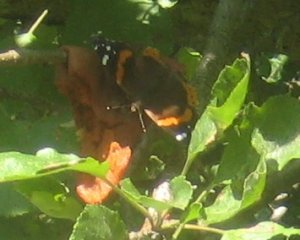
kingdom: Animalia
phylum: Arthropoda
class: Insecta
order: Lepidoptera
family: Nymphalidae
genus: Vanessa
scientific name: Vanessa atalanta
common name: Red Admiral
